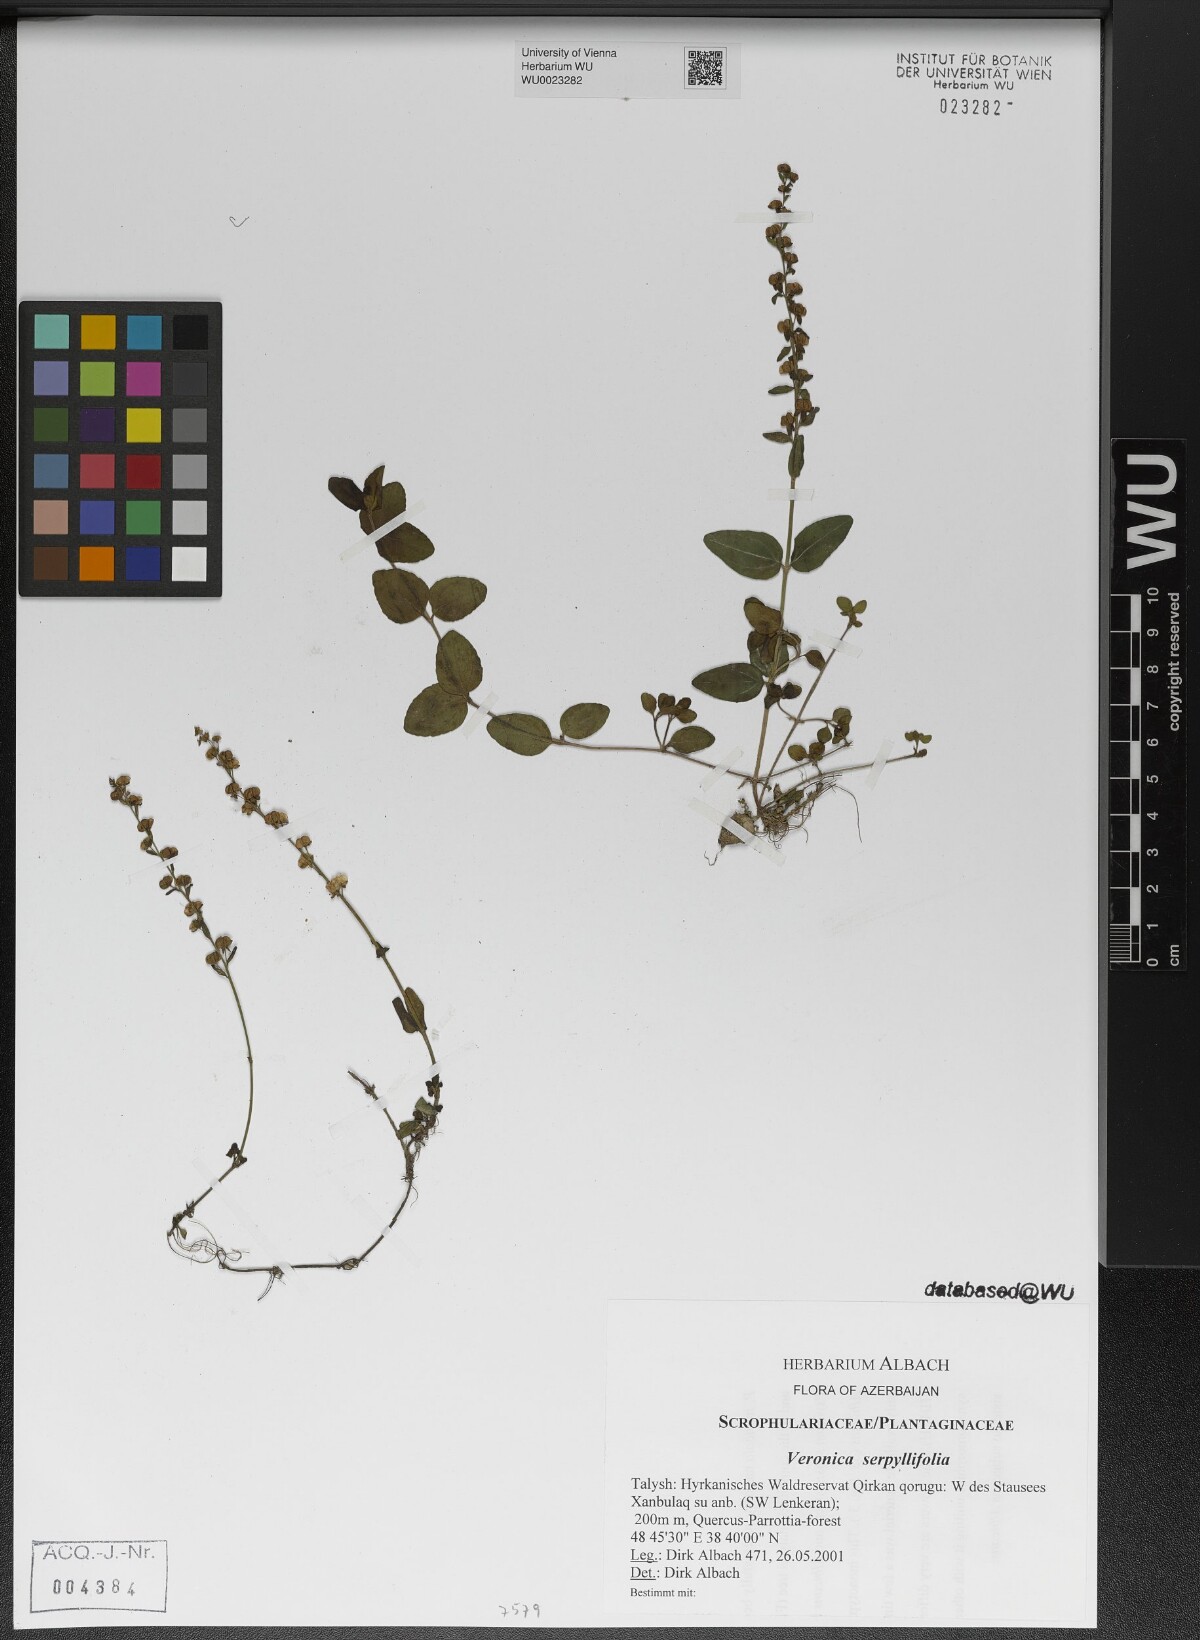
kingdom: Plantae
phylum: Tracheophyta
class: Magnoliopsida
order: Lamiales
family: Plantaginaceae
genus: Veronica
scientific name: Veronica serpyllifolia
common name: Thyme-leaved speedwell
